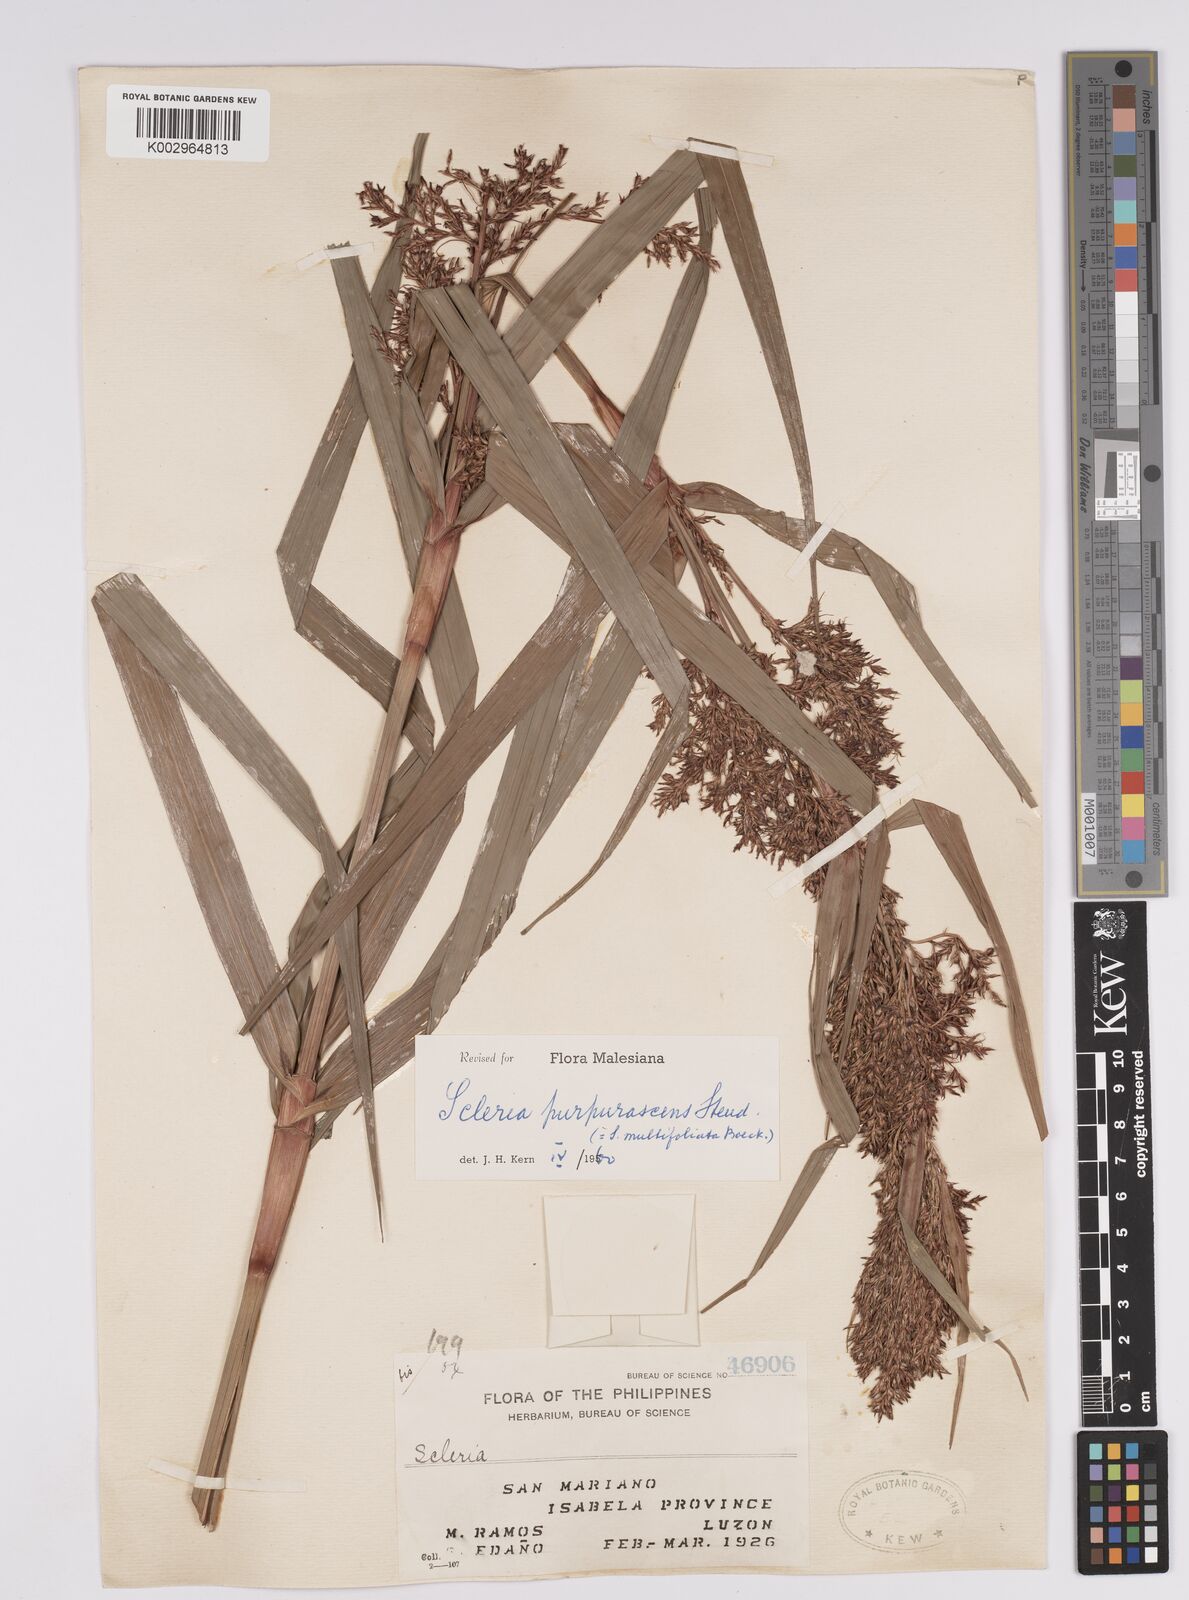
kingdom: Plantae
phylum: Tracheophyta
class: Liliopsida
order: Poales
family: Cyperaceae
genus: Scleria
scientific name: Scleria purpurascens
